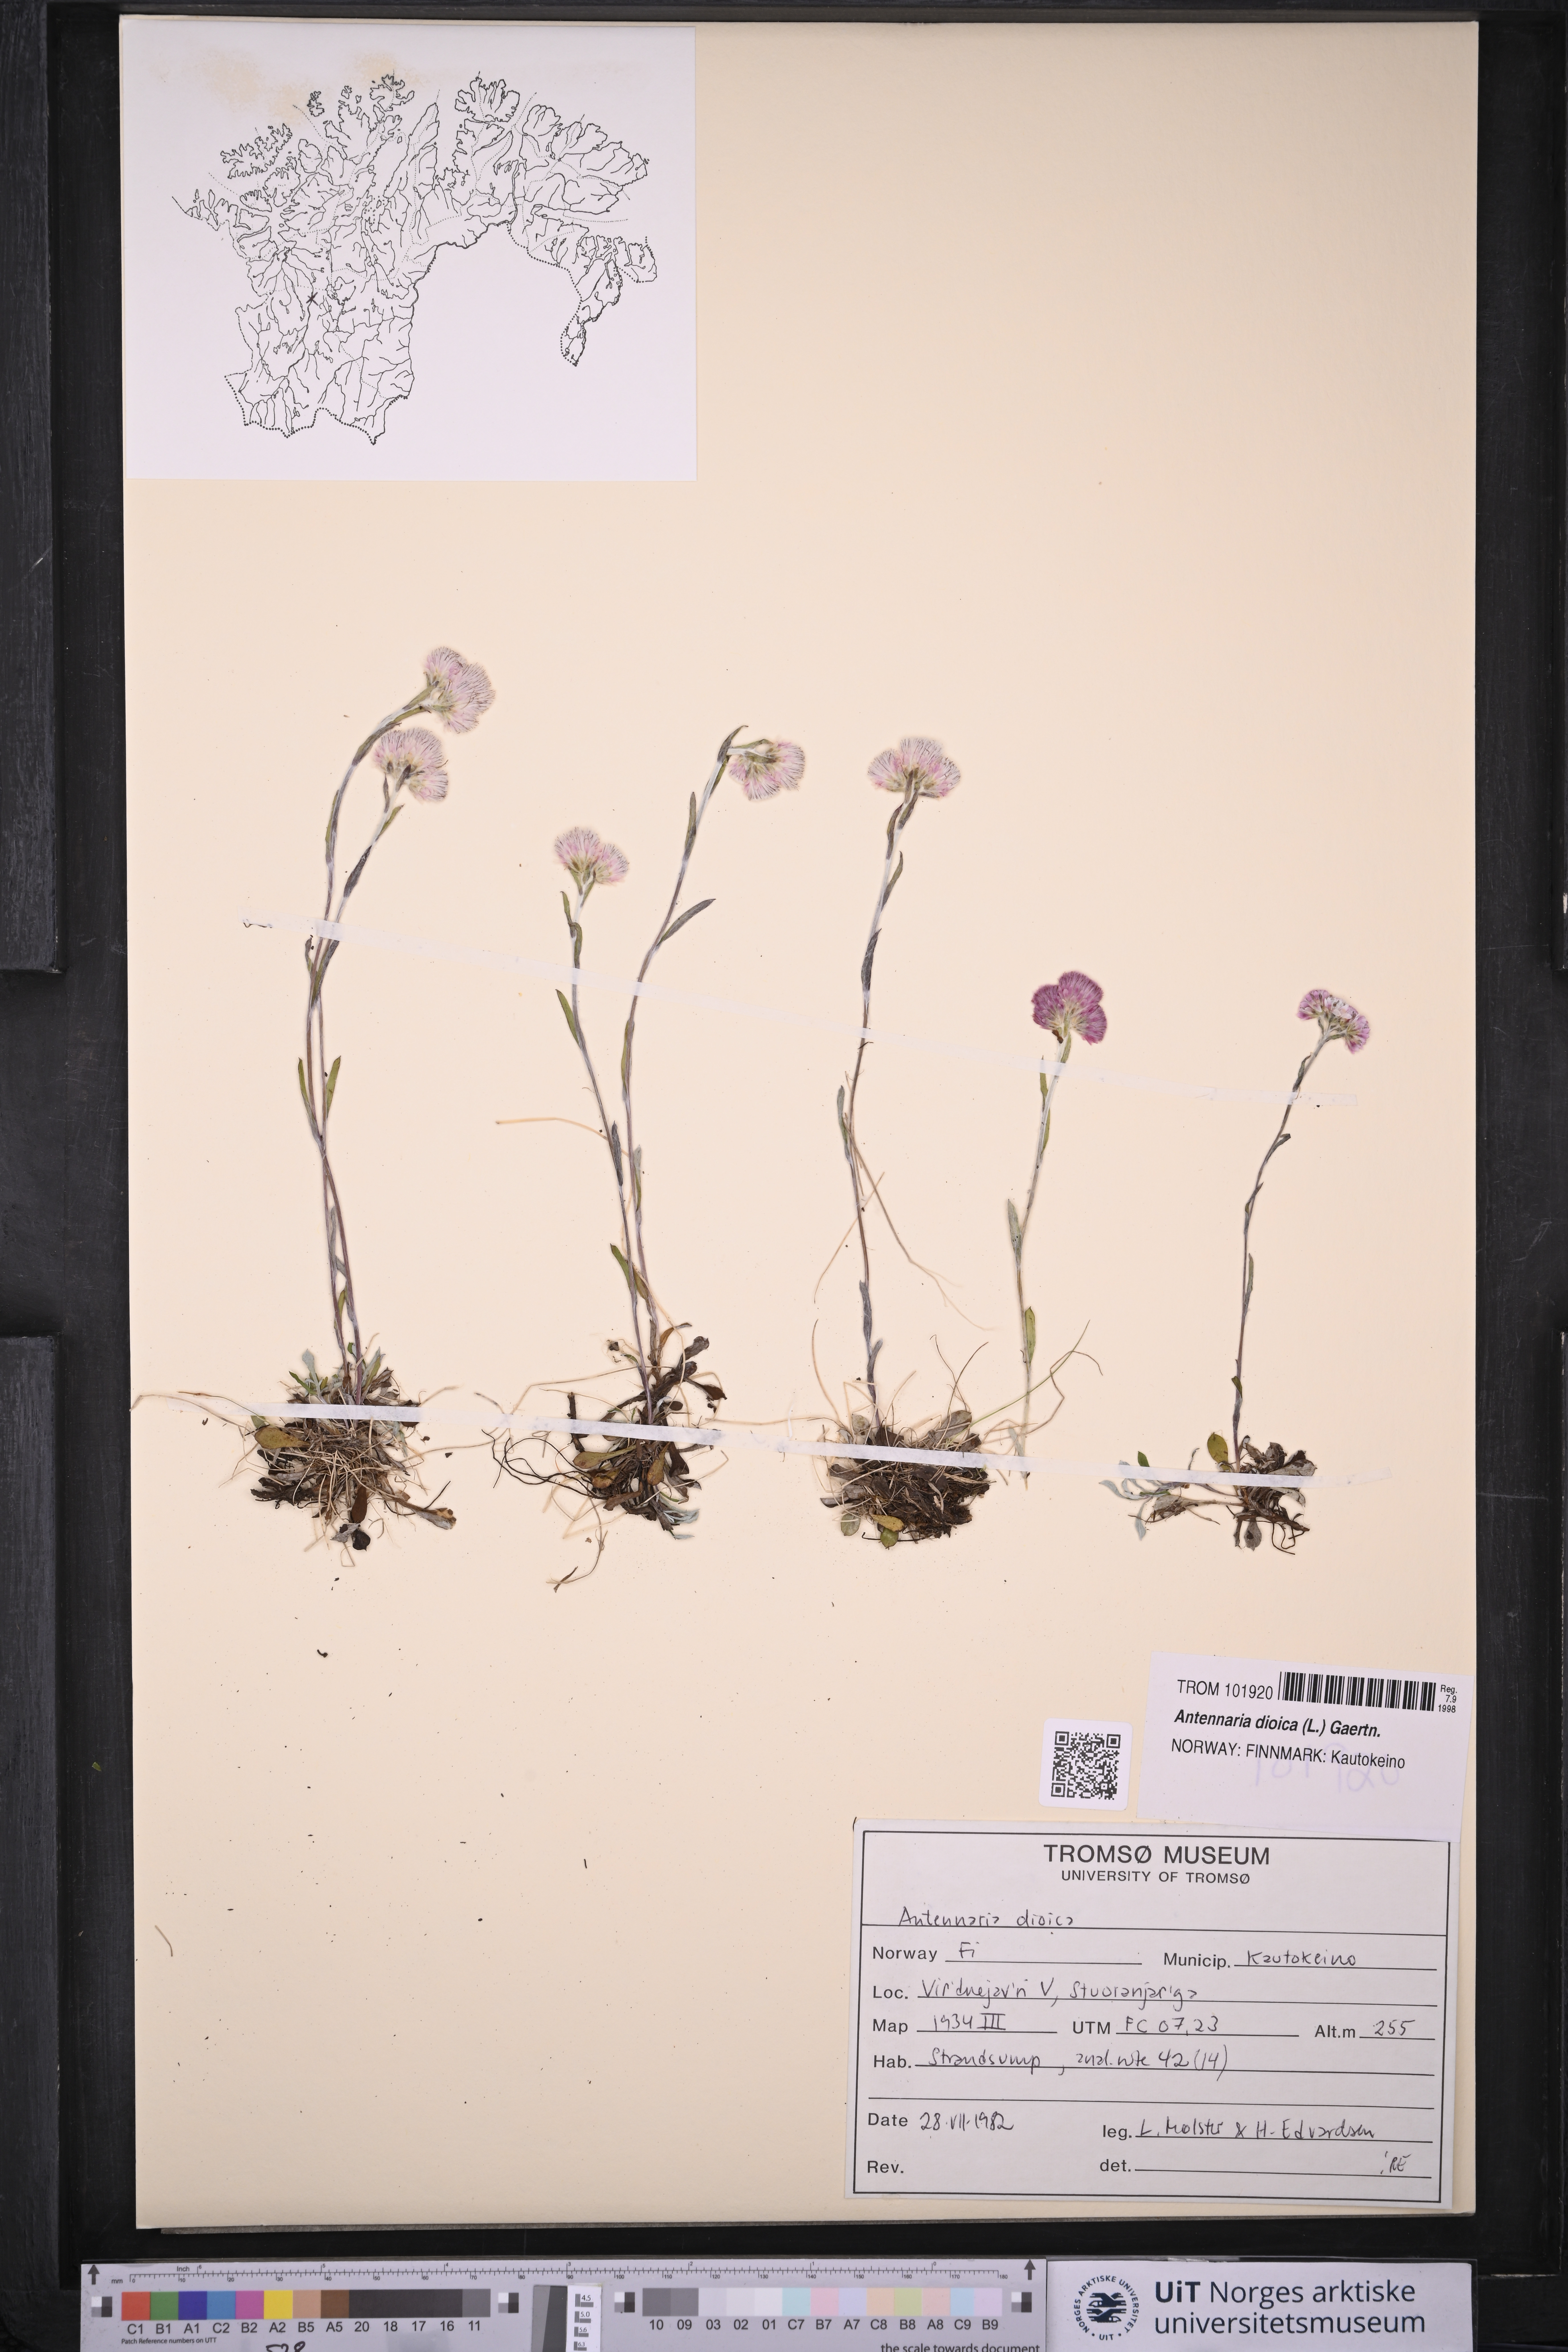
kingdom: Plantae
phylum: Tracheophyta
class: Magnoliopsida
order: Asterales
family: Asteraceae
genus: Antennaria
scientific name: Antennaria dioica
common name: Mountain everlasting
